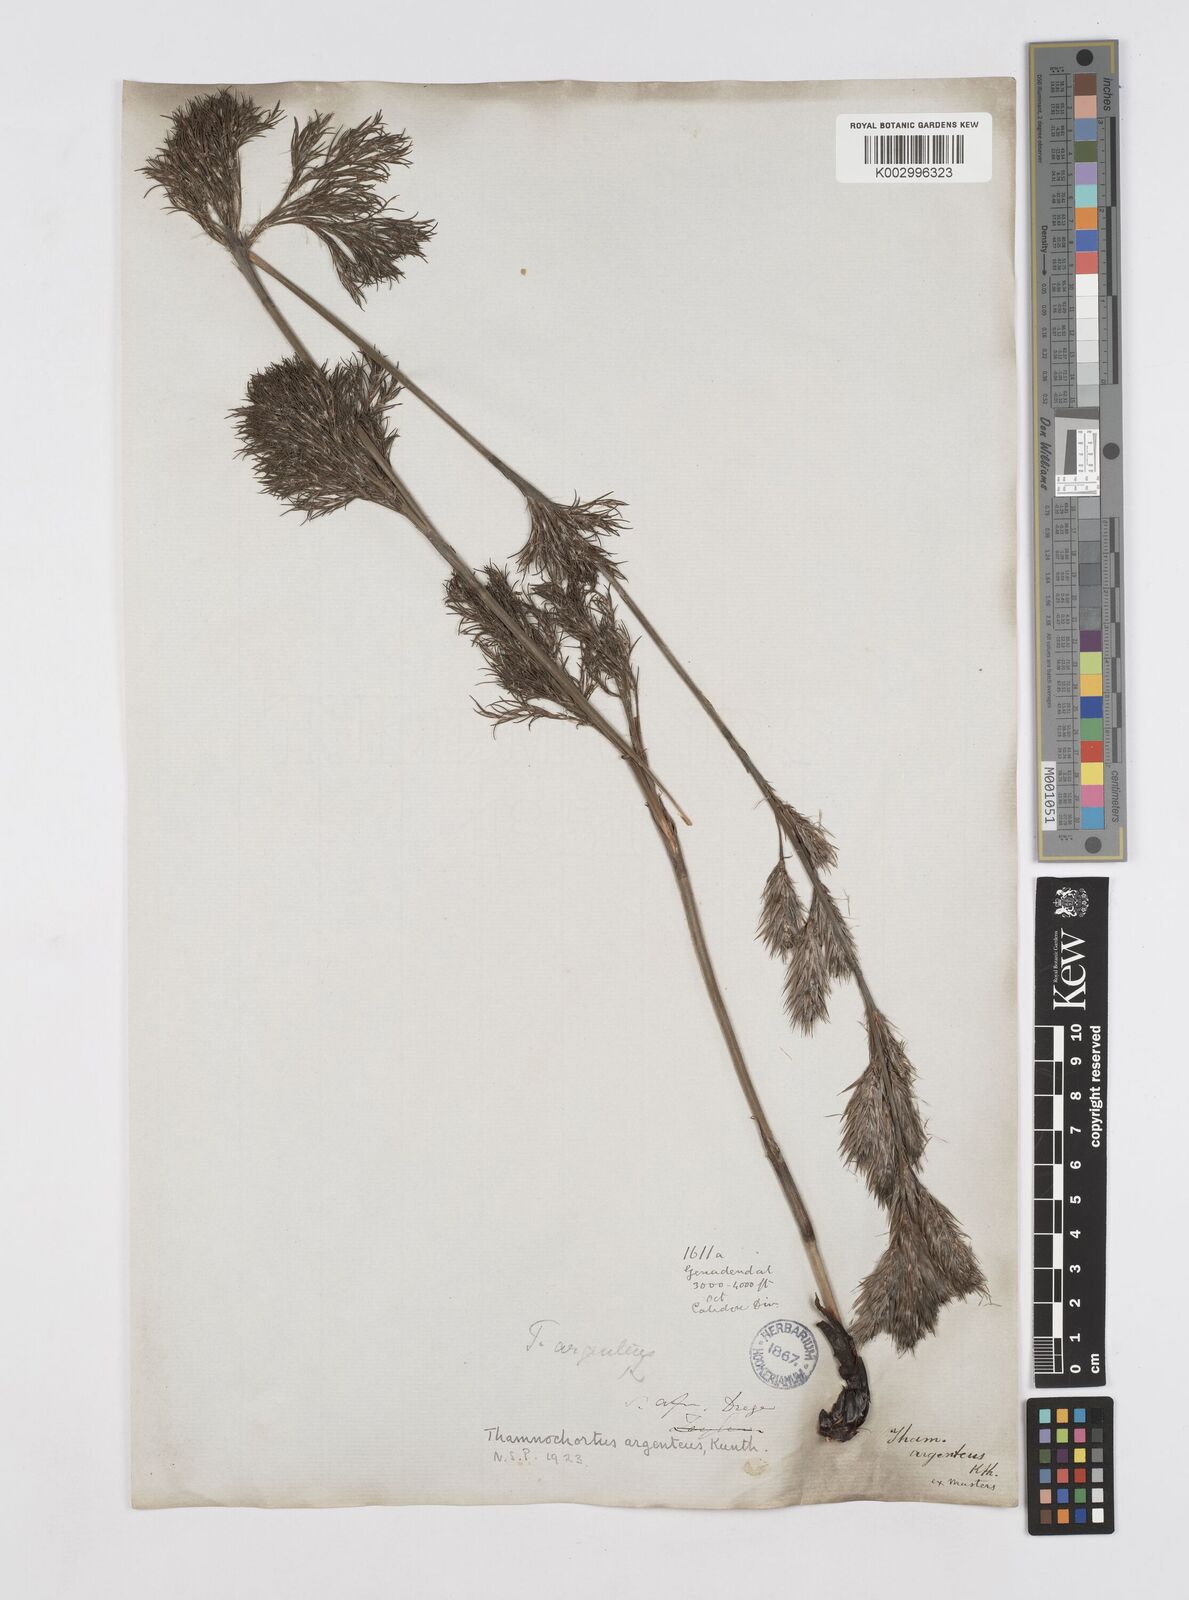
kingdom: Plantae
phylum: Tracheophyta
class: Liliopsida
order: Poales
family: Restionaceae
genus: Hypodiscus
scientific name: Hypodiscus argenteus
